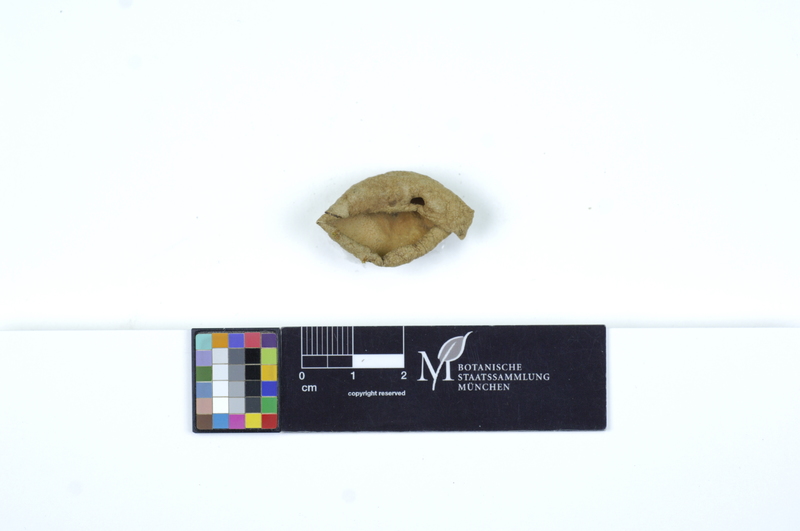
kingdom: Fungi
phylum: Ascomycota
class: Pezizomycetes
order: Pezizales
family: Pyronemataceae
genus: Geopora
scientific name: Geopora foliacea
